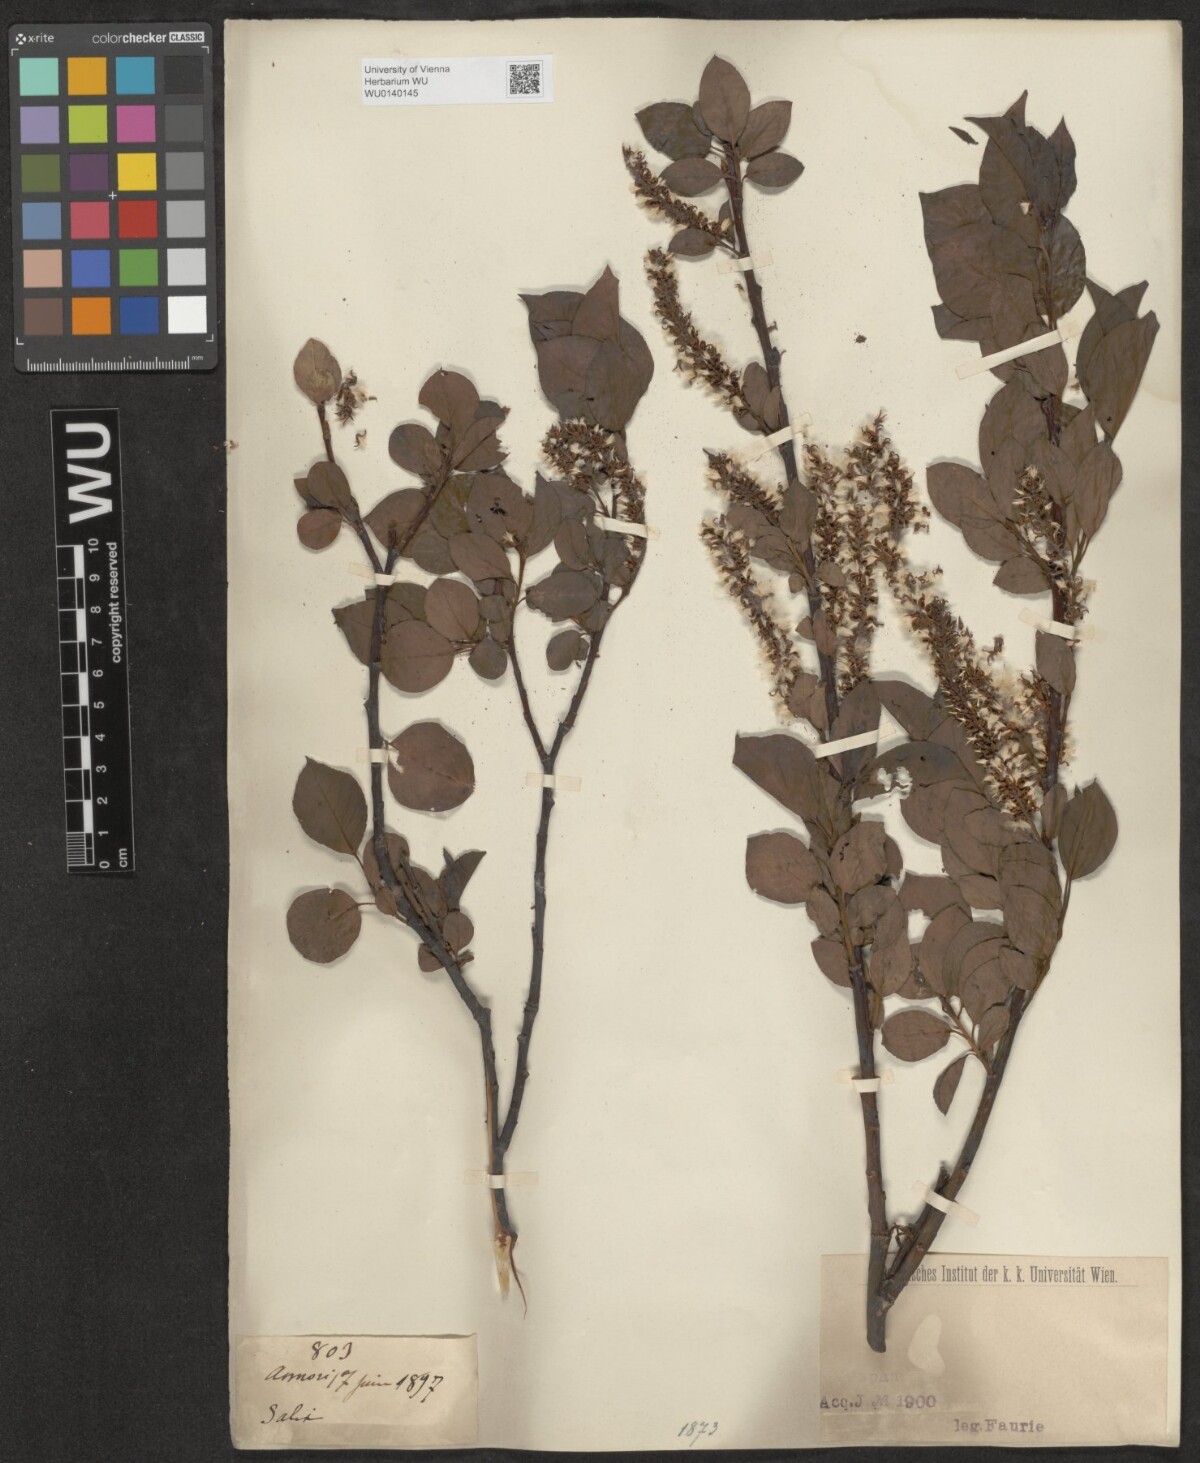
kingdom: Plantae
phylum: Tracheophyta
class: Magnoliopsida
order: Malpighiales
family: Salicaceae
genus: Salix
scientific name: Salix
